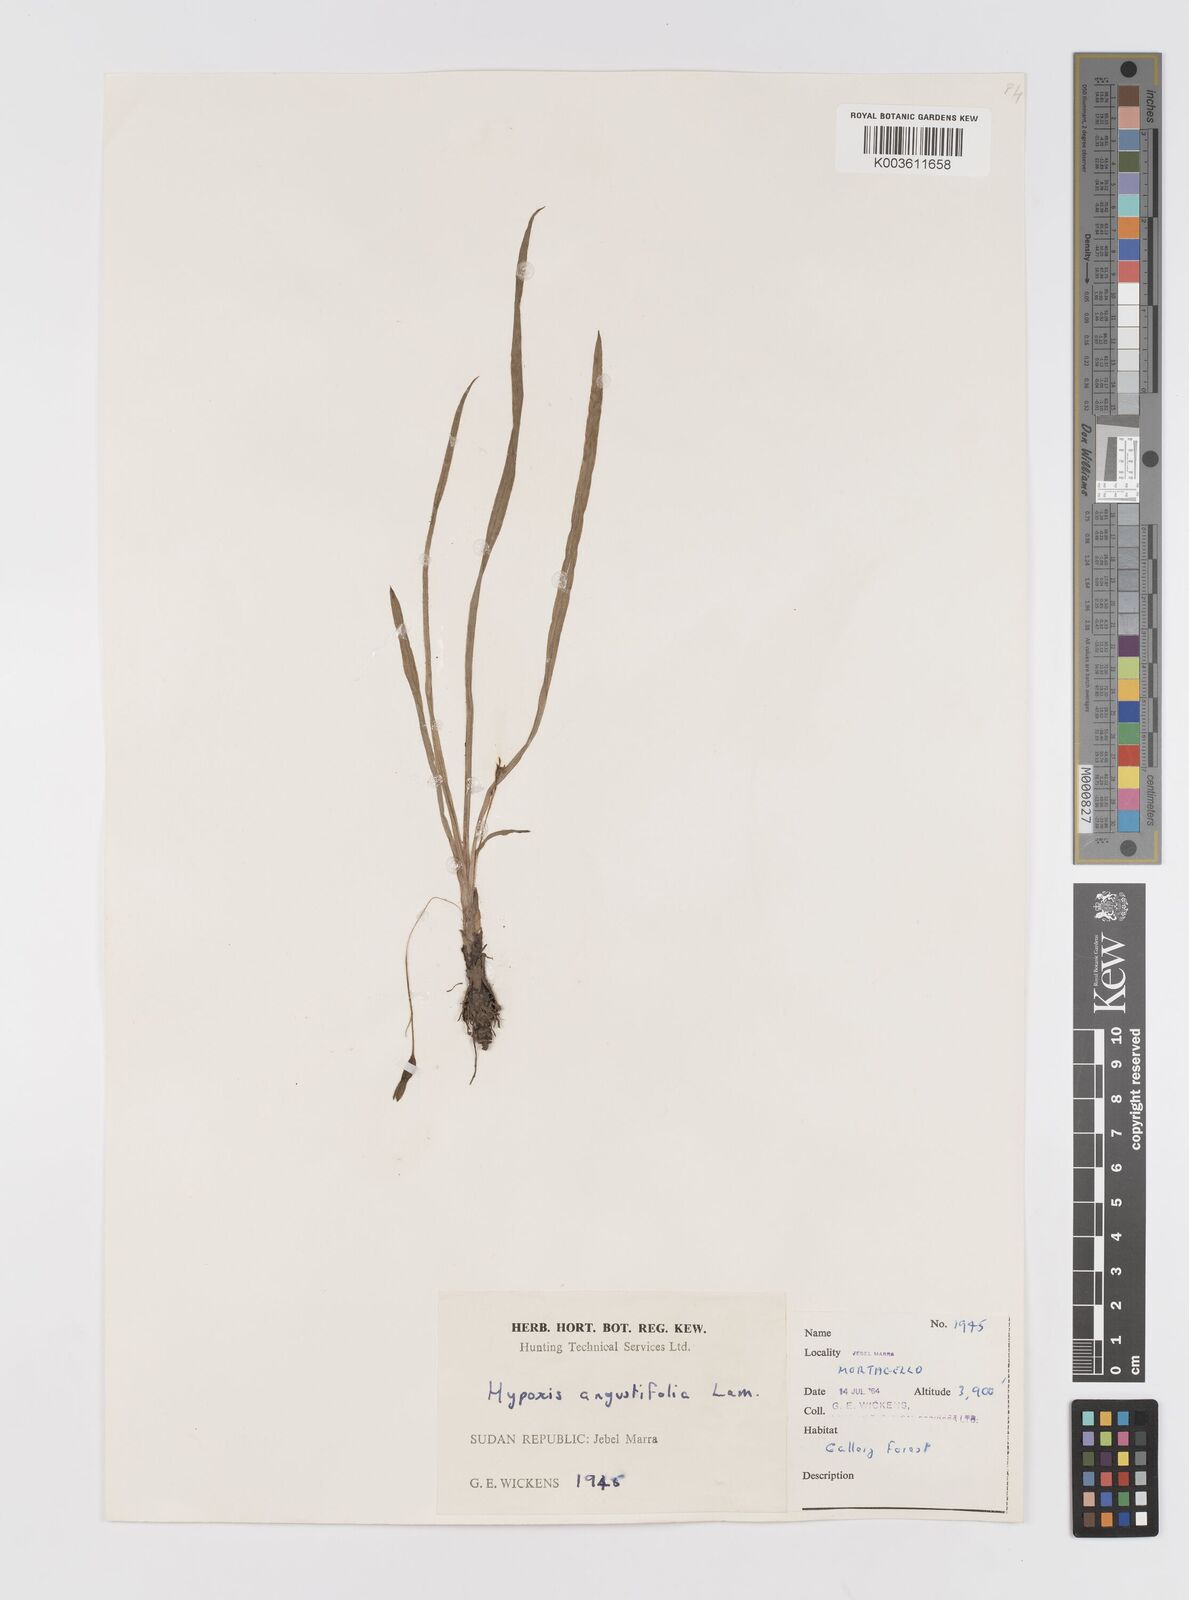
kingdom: Plantae
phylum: Tracheophyta
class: Liliopsida
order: Asparagales
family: Hypoxidaceae
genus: Hypoxis
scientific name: Hypoxis angustifolia
